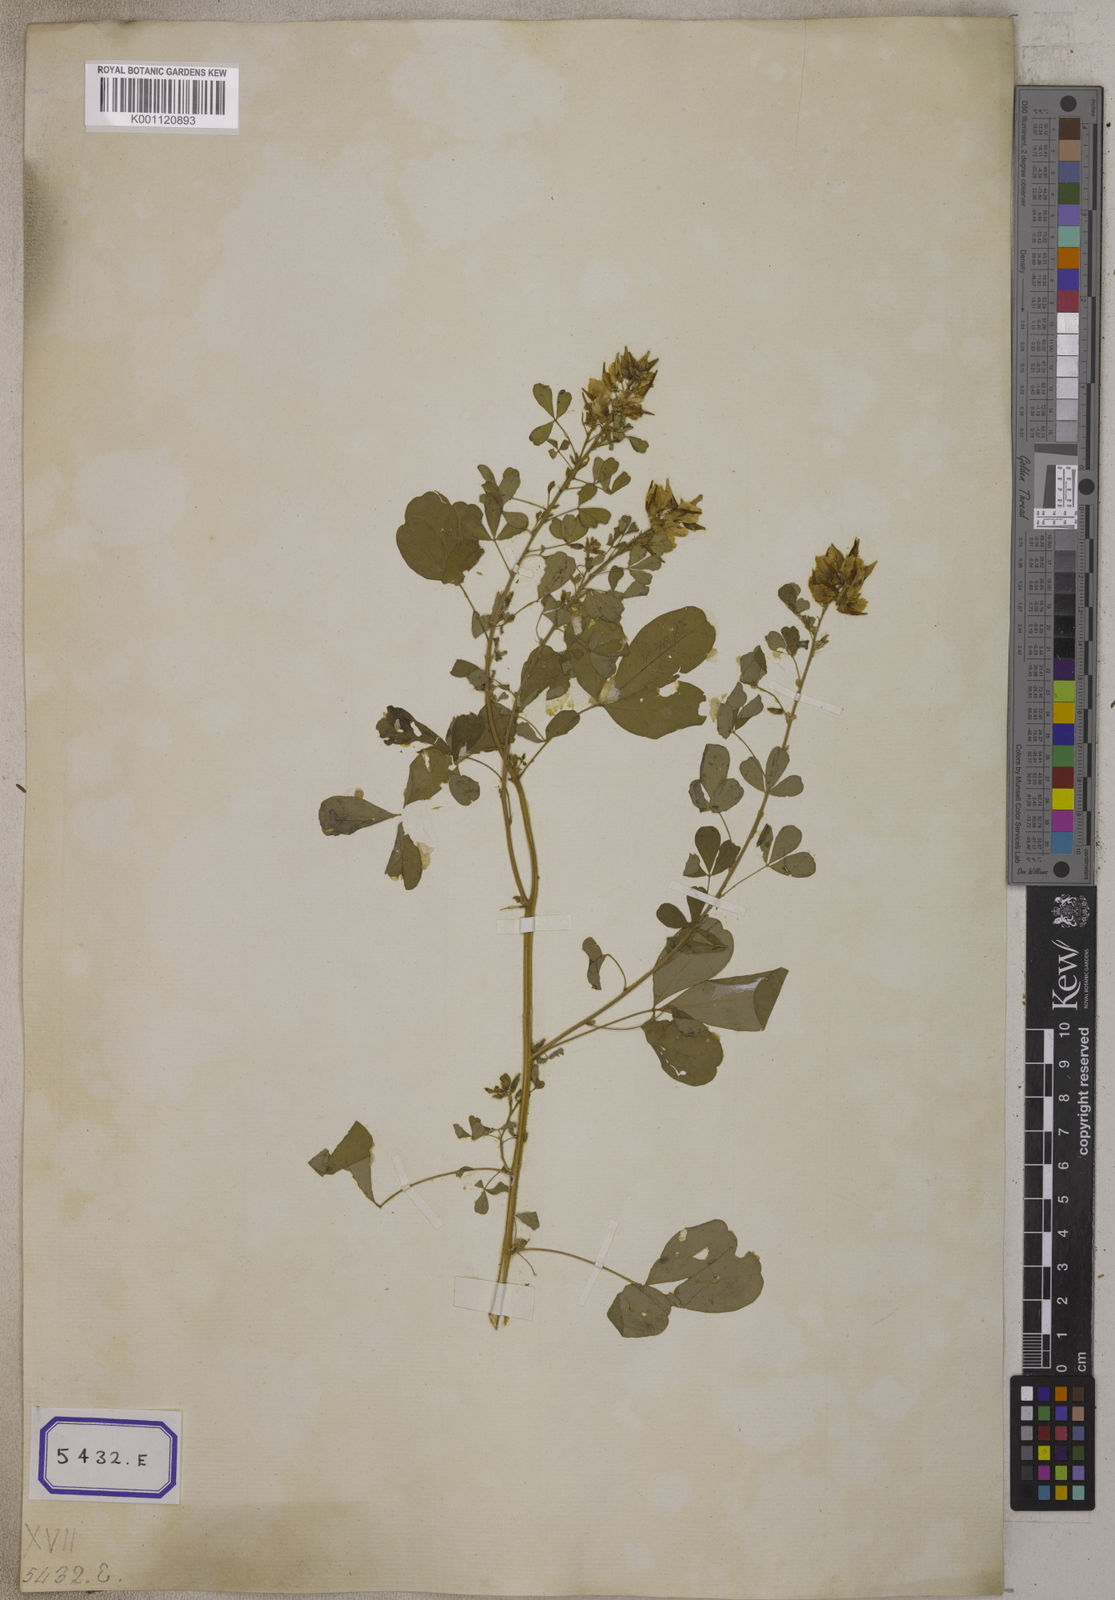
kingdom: Plantae
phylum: Tracheophyta
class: Magnoliopsida
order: Fabales
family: Fabaceae
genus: Crotalaria
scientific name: Crotalaria
